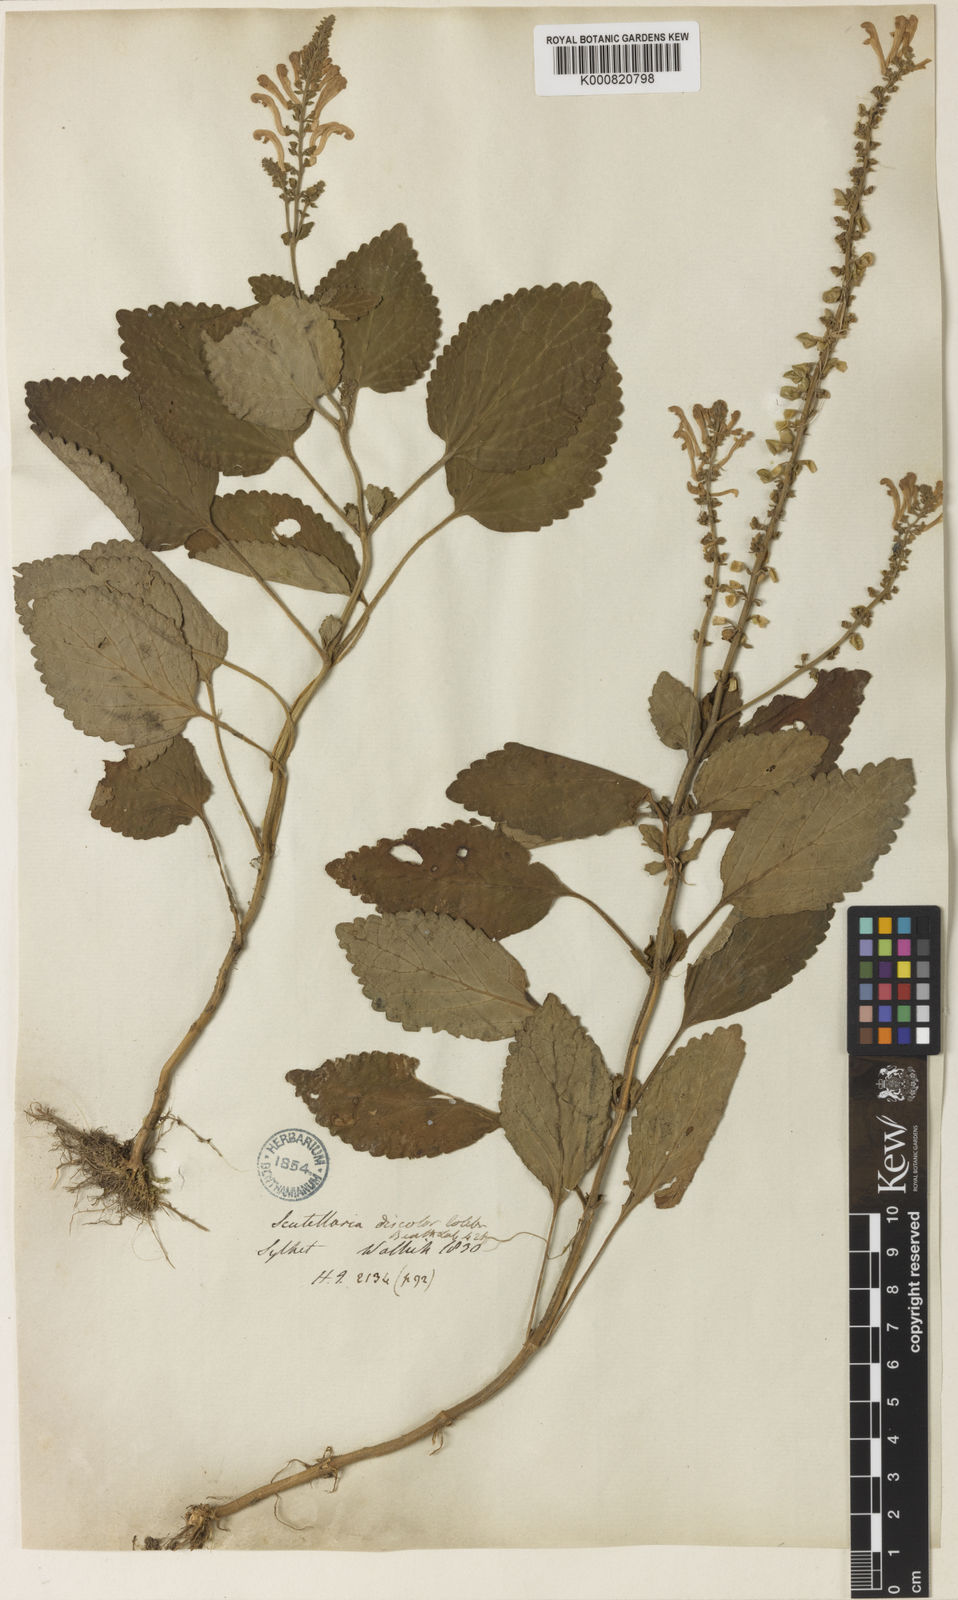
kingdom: Plantae
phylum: Tracheophyta
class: Magnoliopsida
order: Lamiales
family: Lamiaceae
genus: Scutellaria
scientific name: Scutellaria
